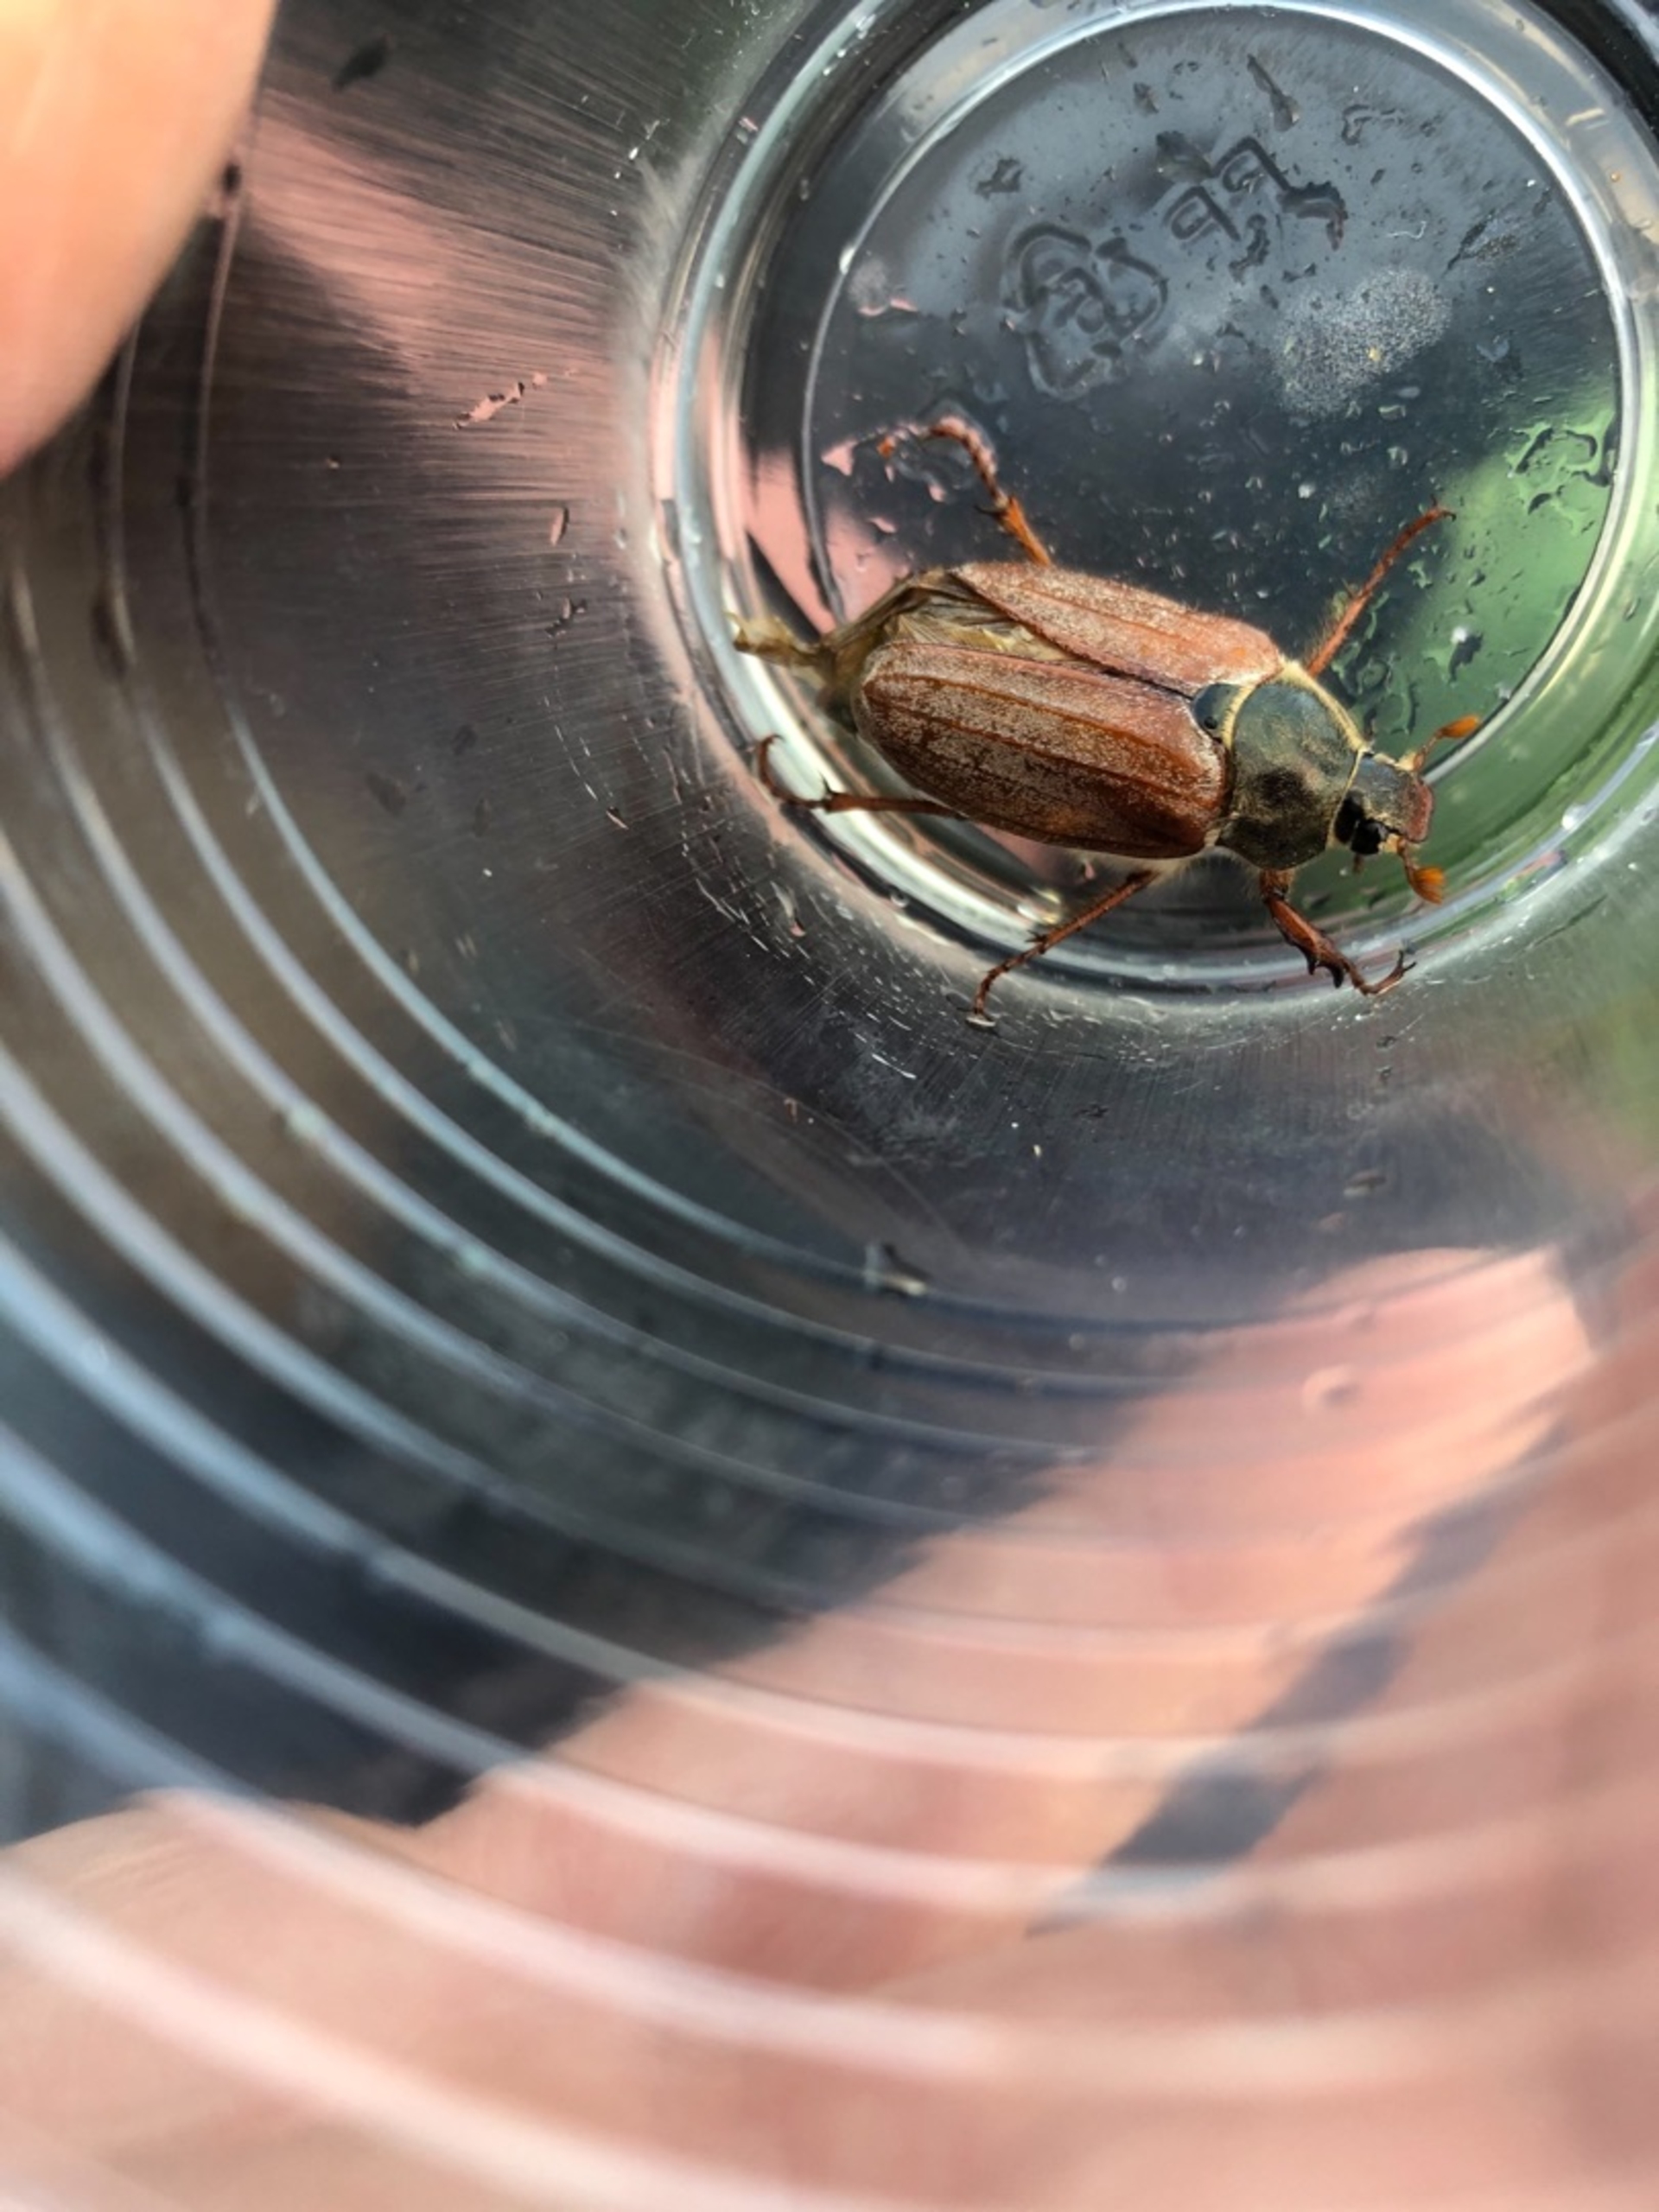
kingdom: Animalia
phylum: Arthropoda
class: Insecta
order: Coleoptera
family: Scarabaeidae
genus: Melolontha
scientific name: Melolontha melolontha
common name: Almindelig oldenborre
